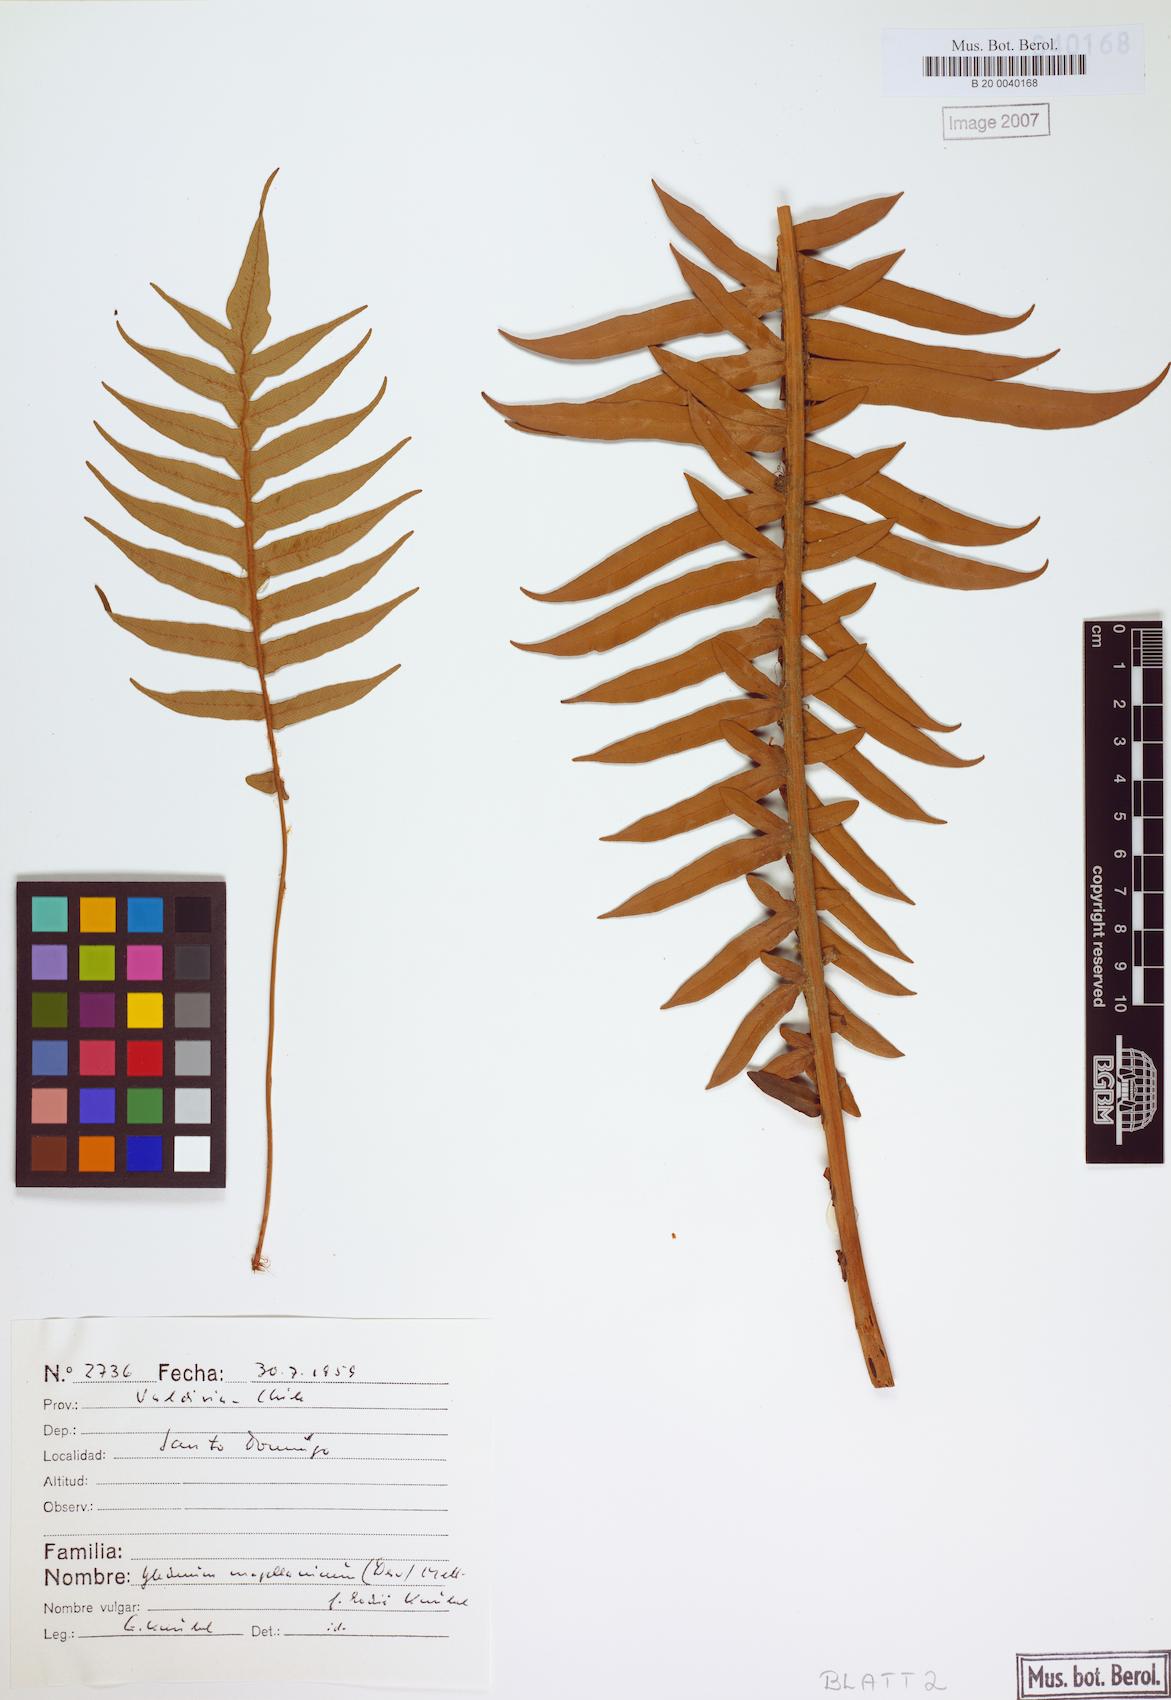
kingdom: Plantae
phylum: Tracheophyta
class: Polypodiopsida
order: Polypodiales
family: Blechnaceae
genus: Lomariocycas
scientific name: Lomariocycas magellanica
